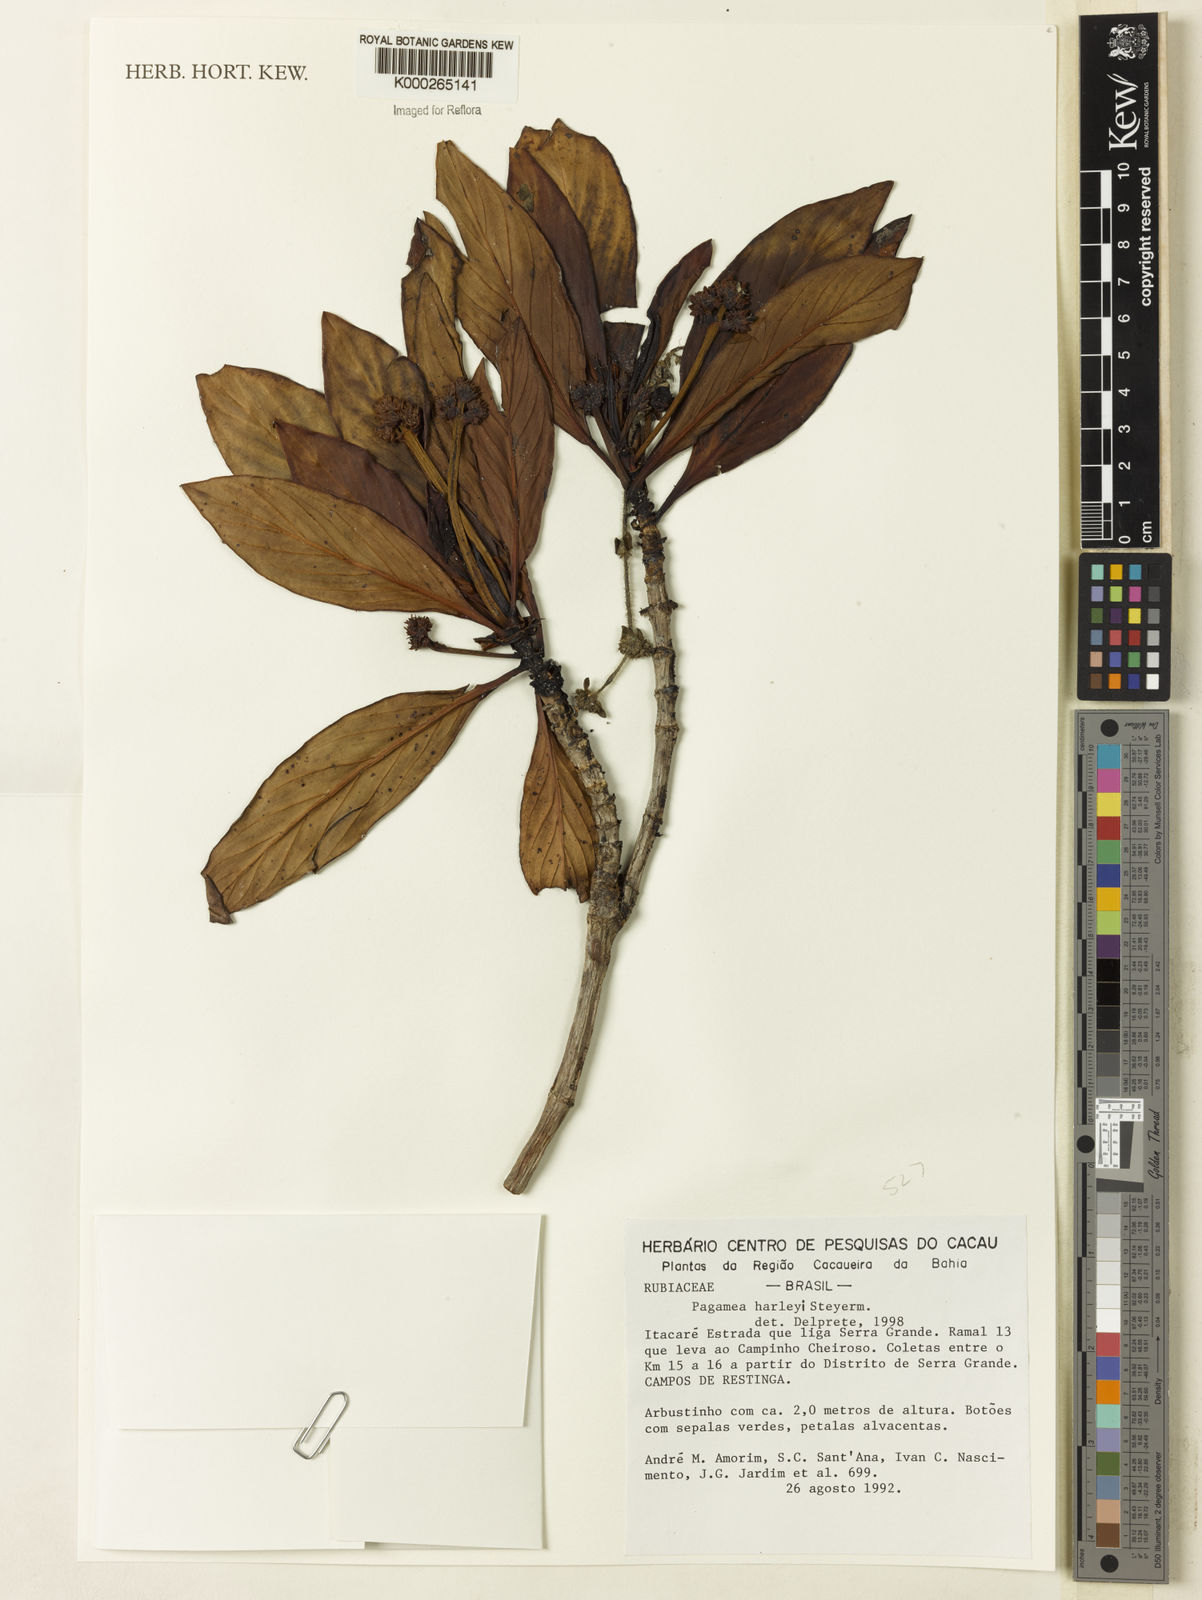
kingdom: Plantae
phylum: Tracheophyta
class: Magnoliopsida
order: Gentianales
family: Rubiaceae
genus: Pagamea
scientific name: Pagamea harleyi
